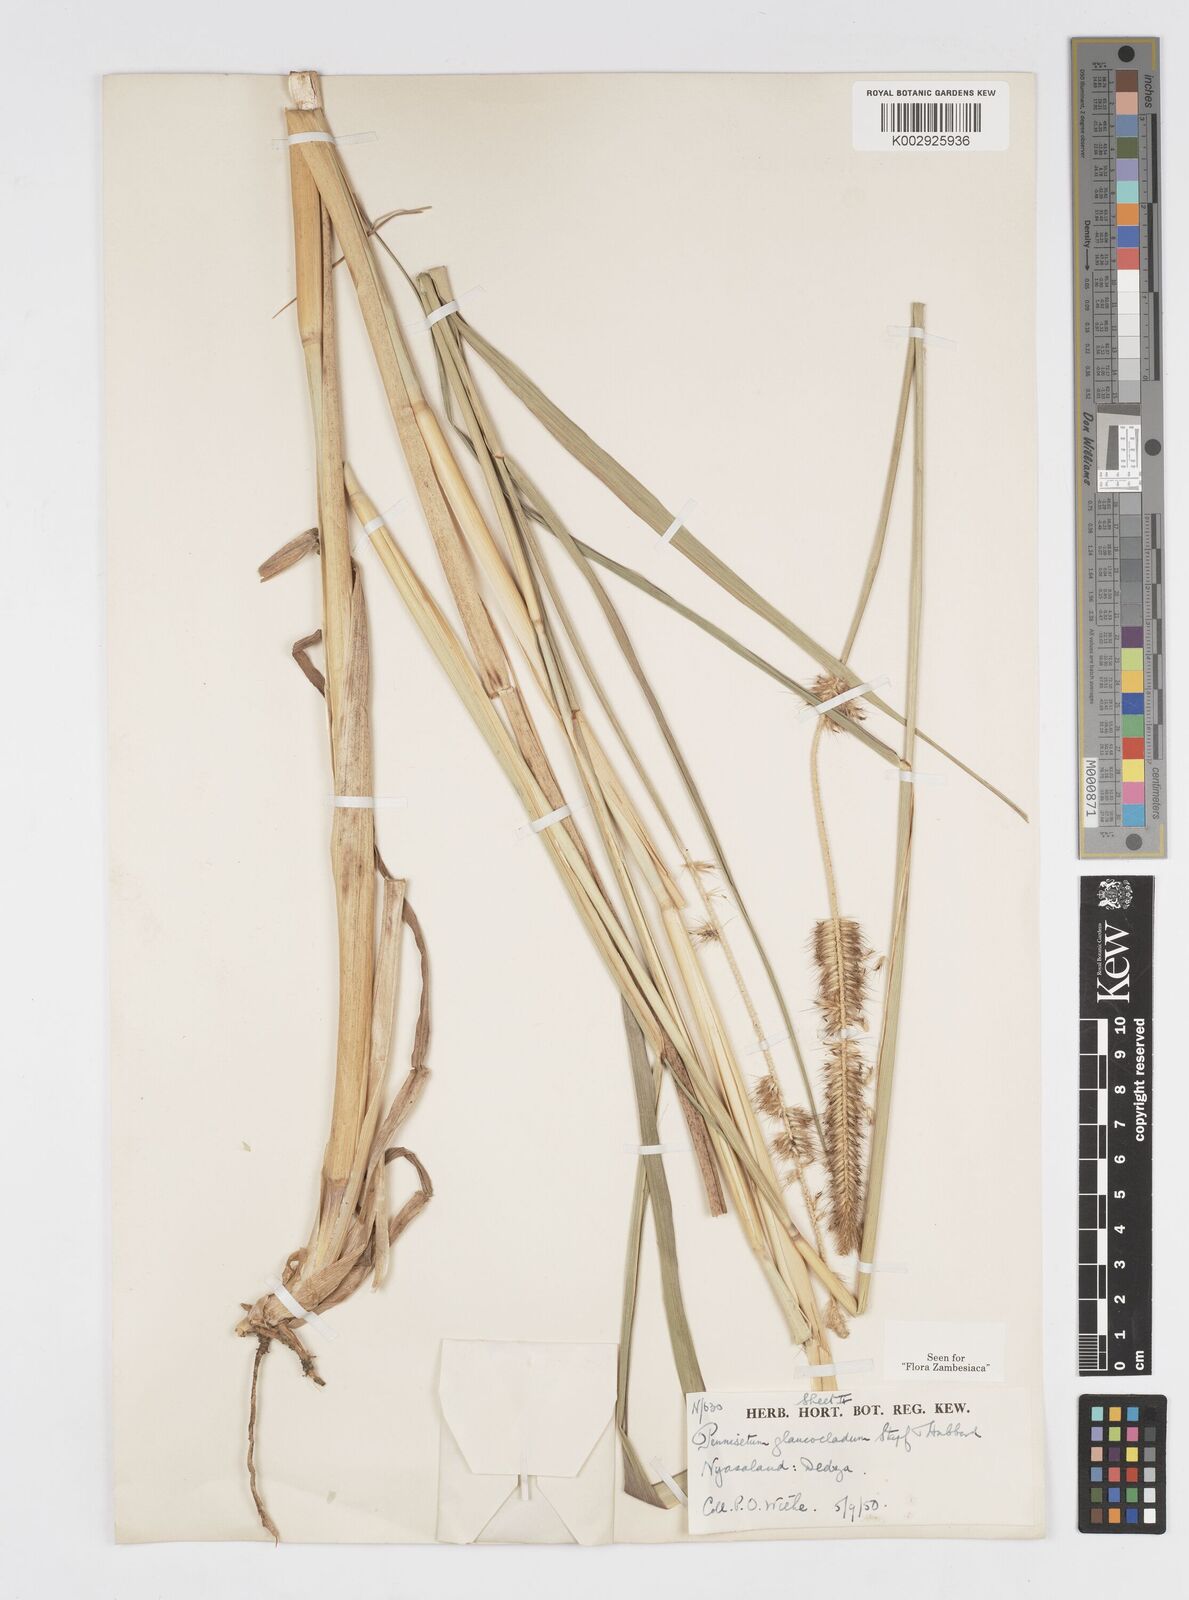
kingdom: Plantae
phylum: Tracheophyta
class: Liliopsida
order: Poales
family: Poaceae
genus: Cenchrus
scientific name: Cenchrus caudatus
